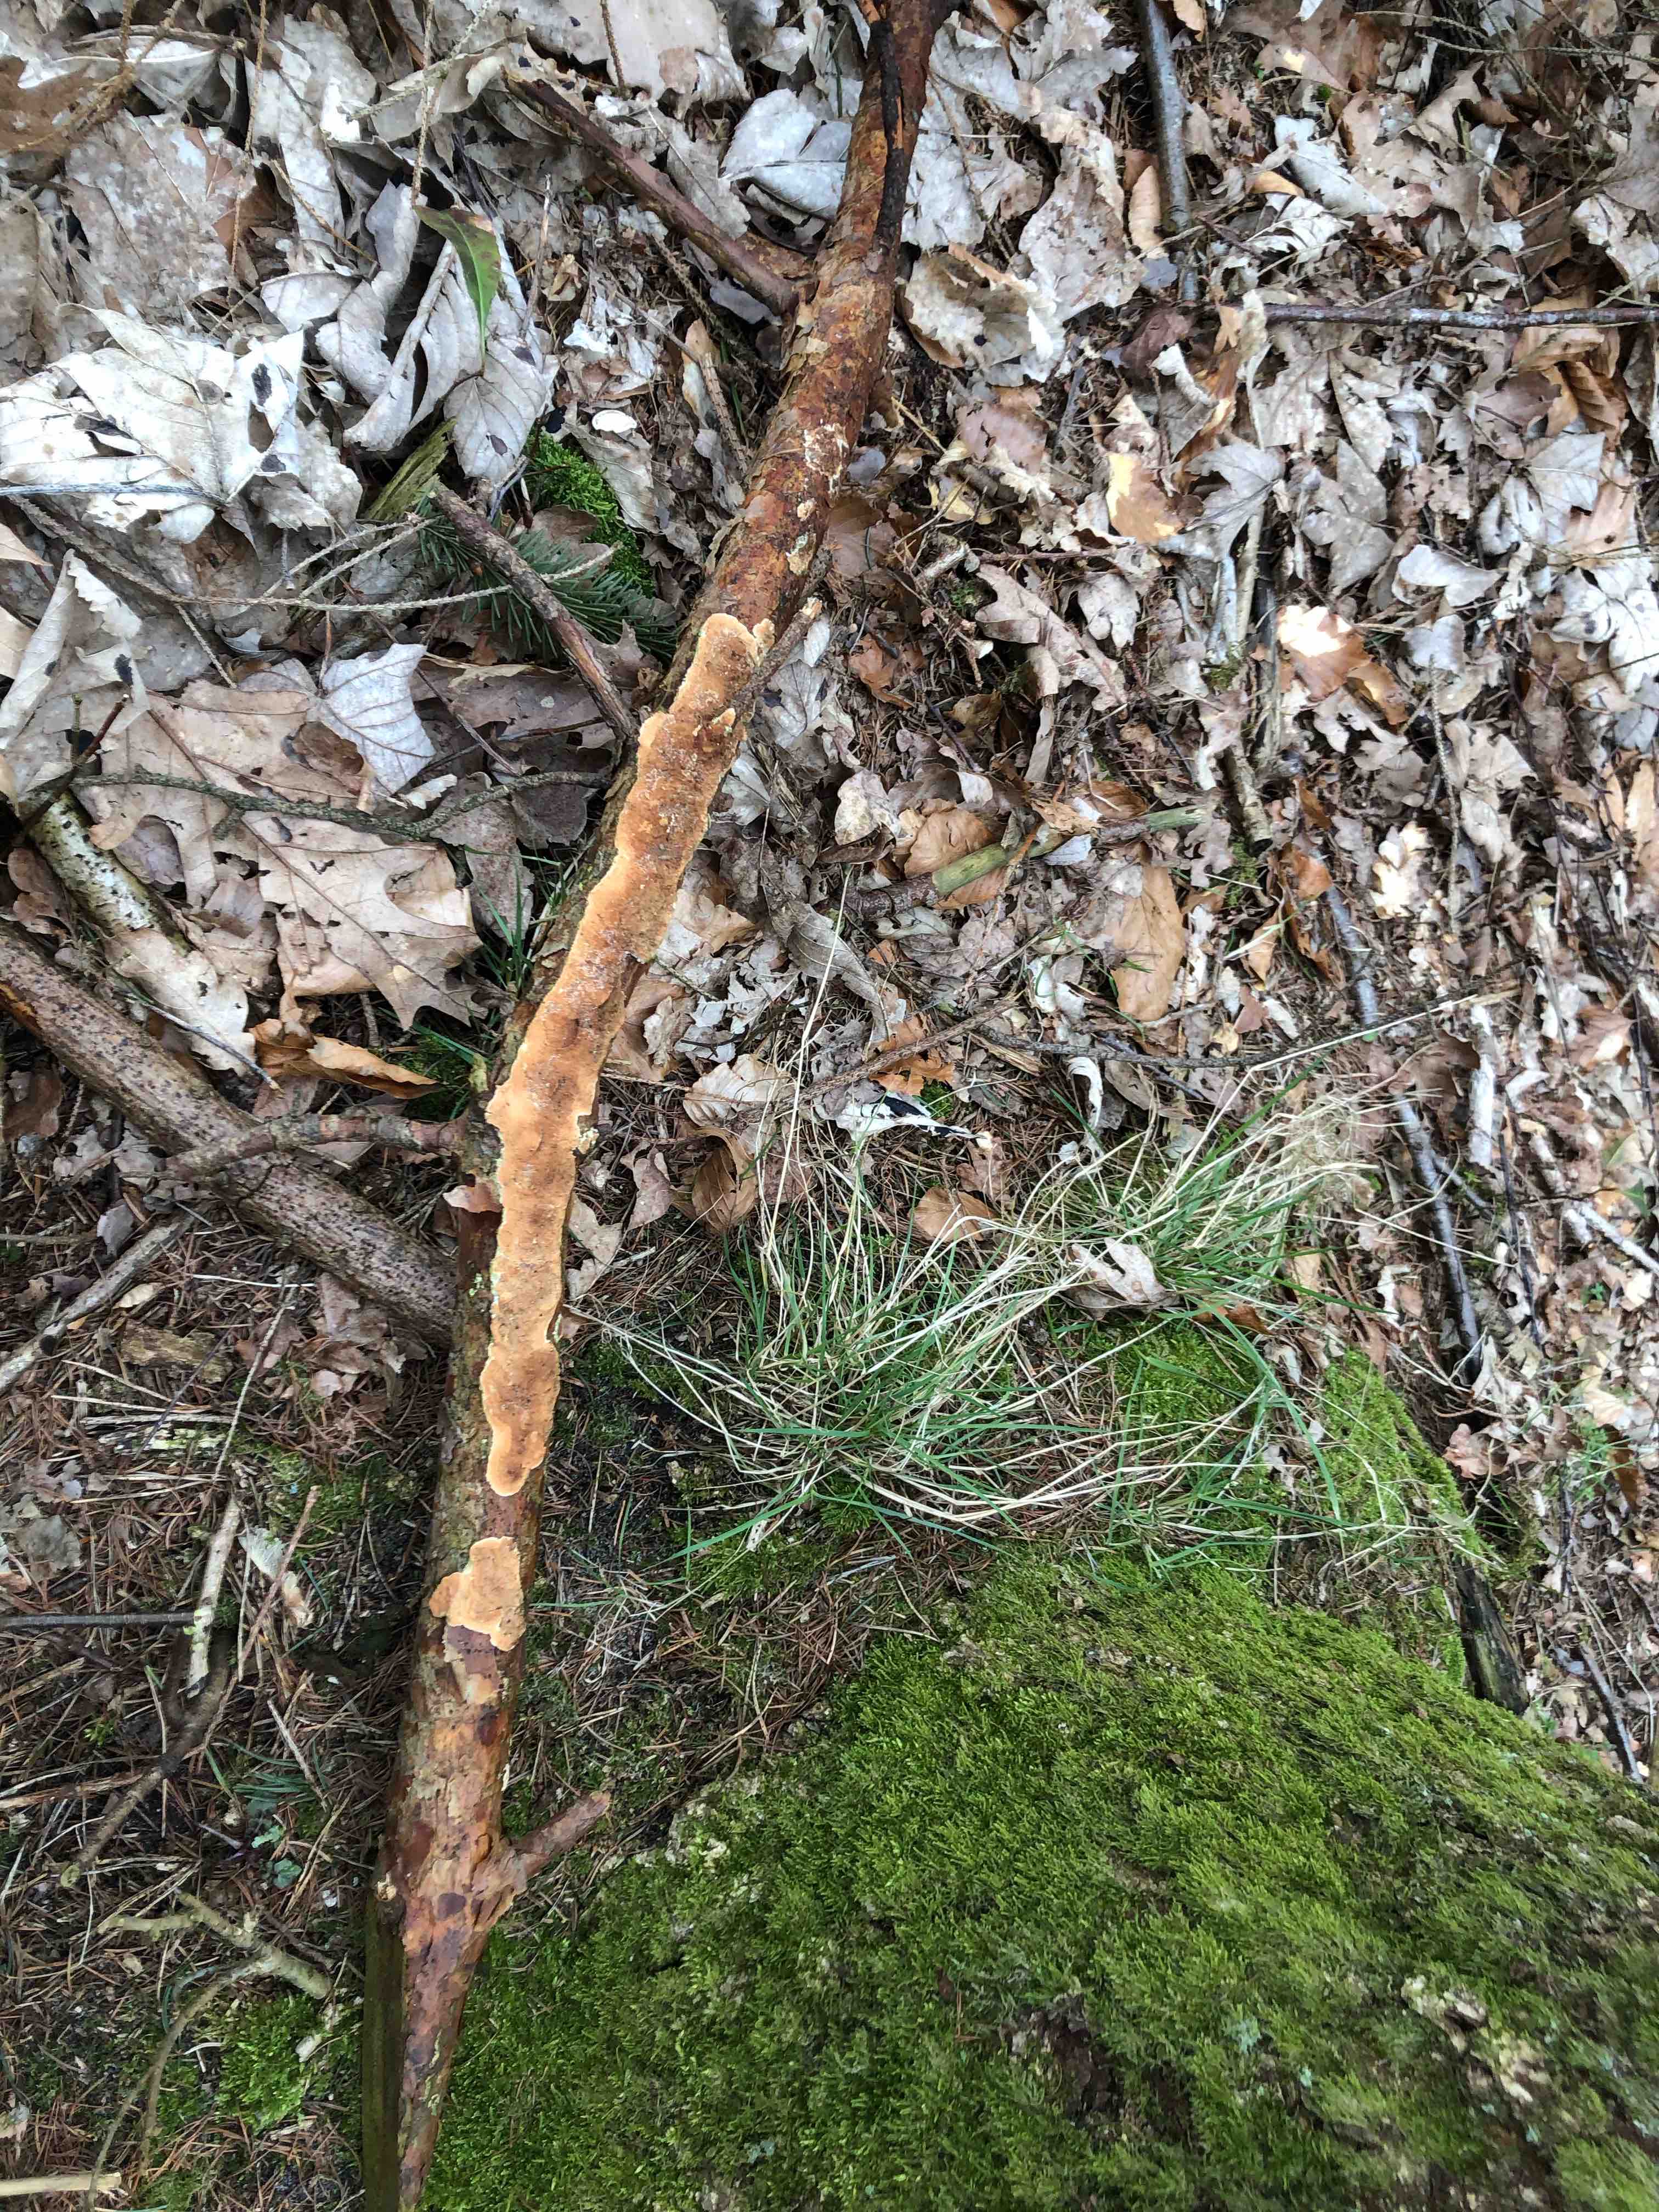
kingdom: Fungi
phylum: Basidiomycota
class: Agaricomycetes
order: Polyporales
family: Irpicaceae
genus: Meruliopsis
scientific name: Meruliopsis taxicola
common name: purpurbrun foldporesvamp
